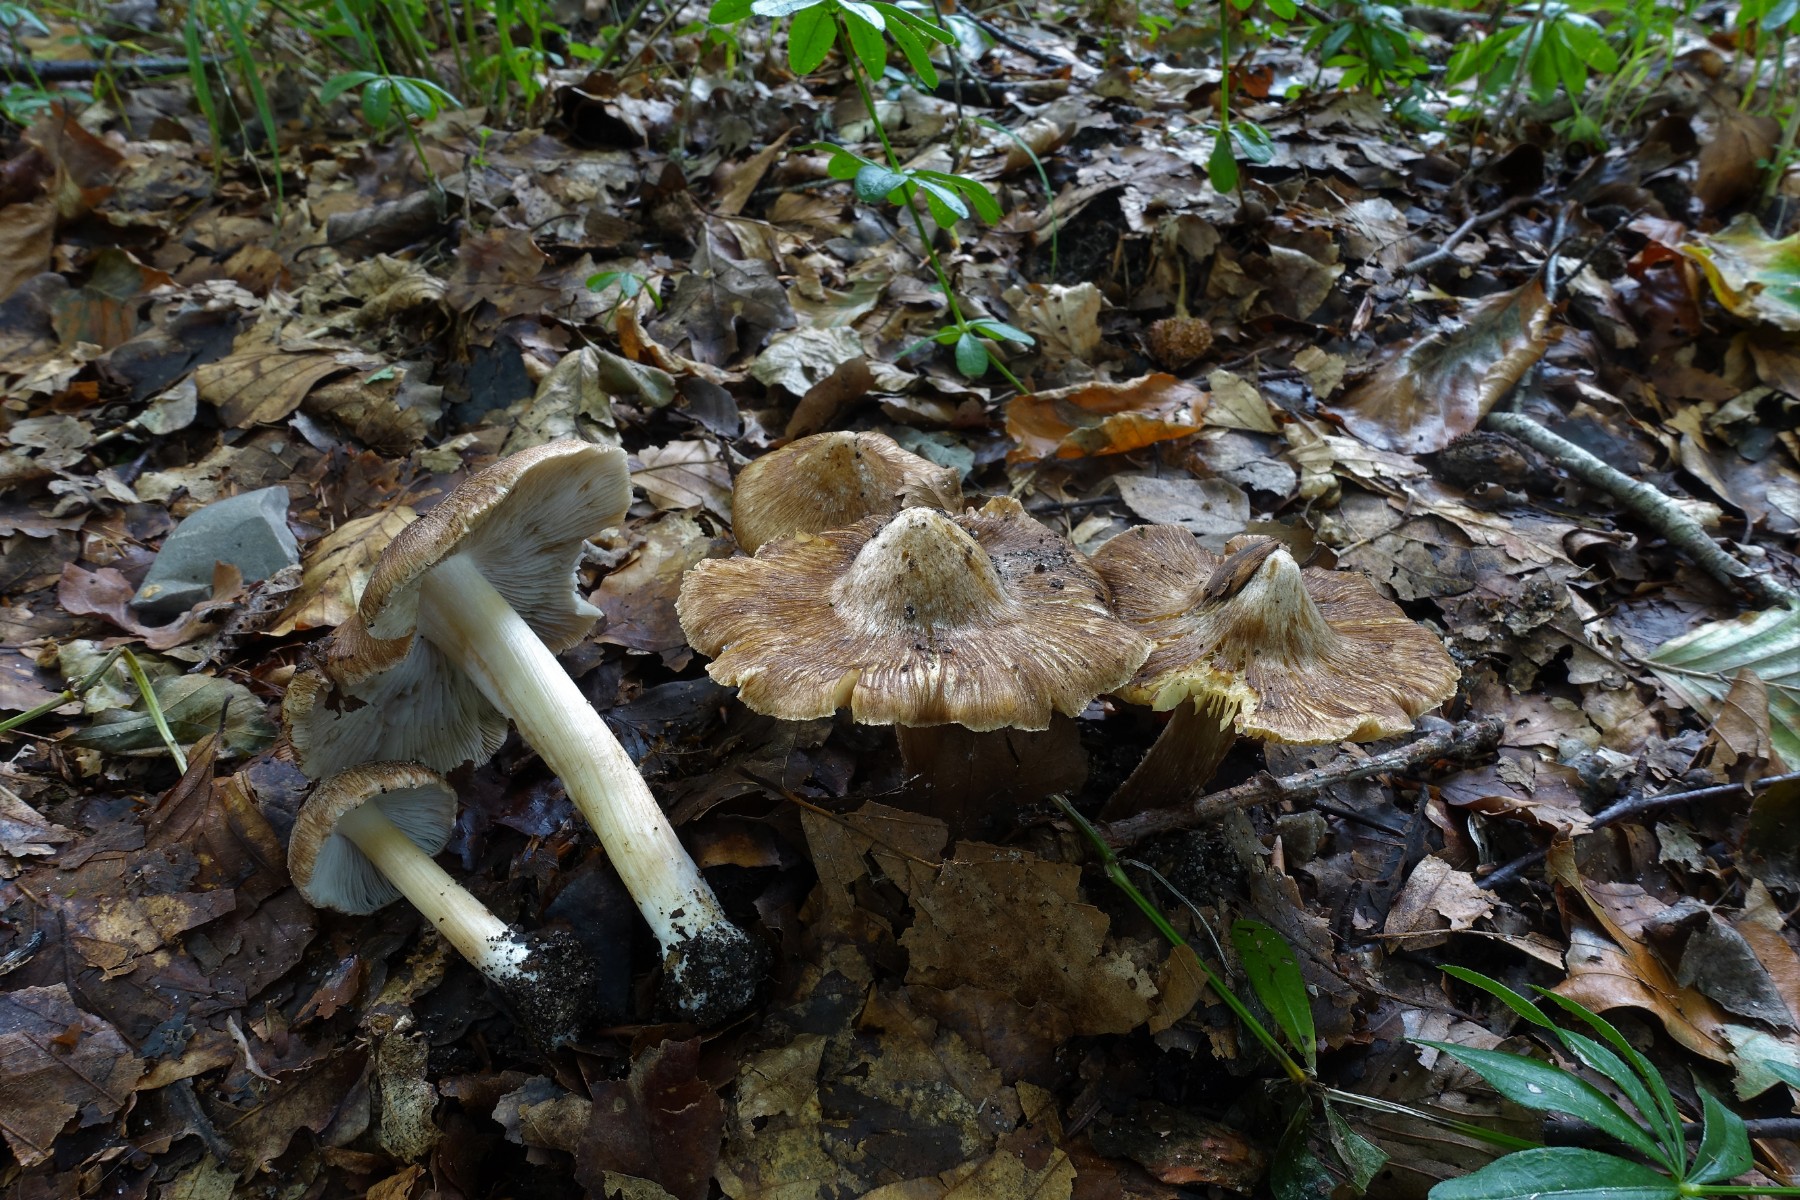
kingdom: Fungi
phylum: Basidiomycota
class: Agaricomycetes
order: Agaricales
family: Inocybaceae
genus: Inosperma
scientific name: Inosperma
